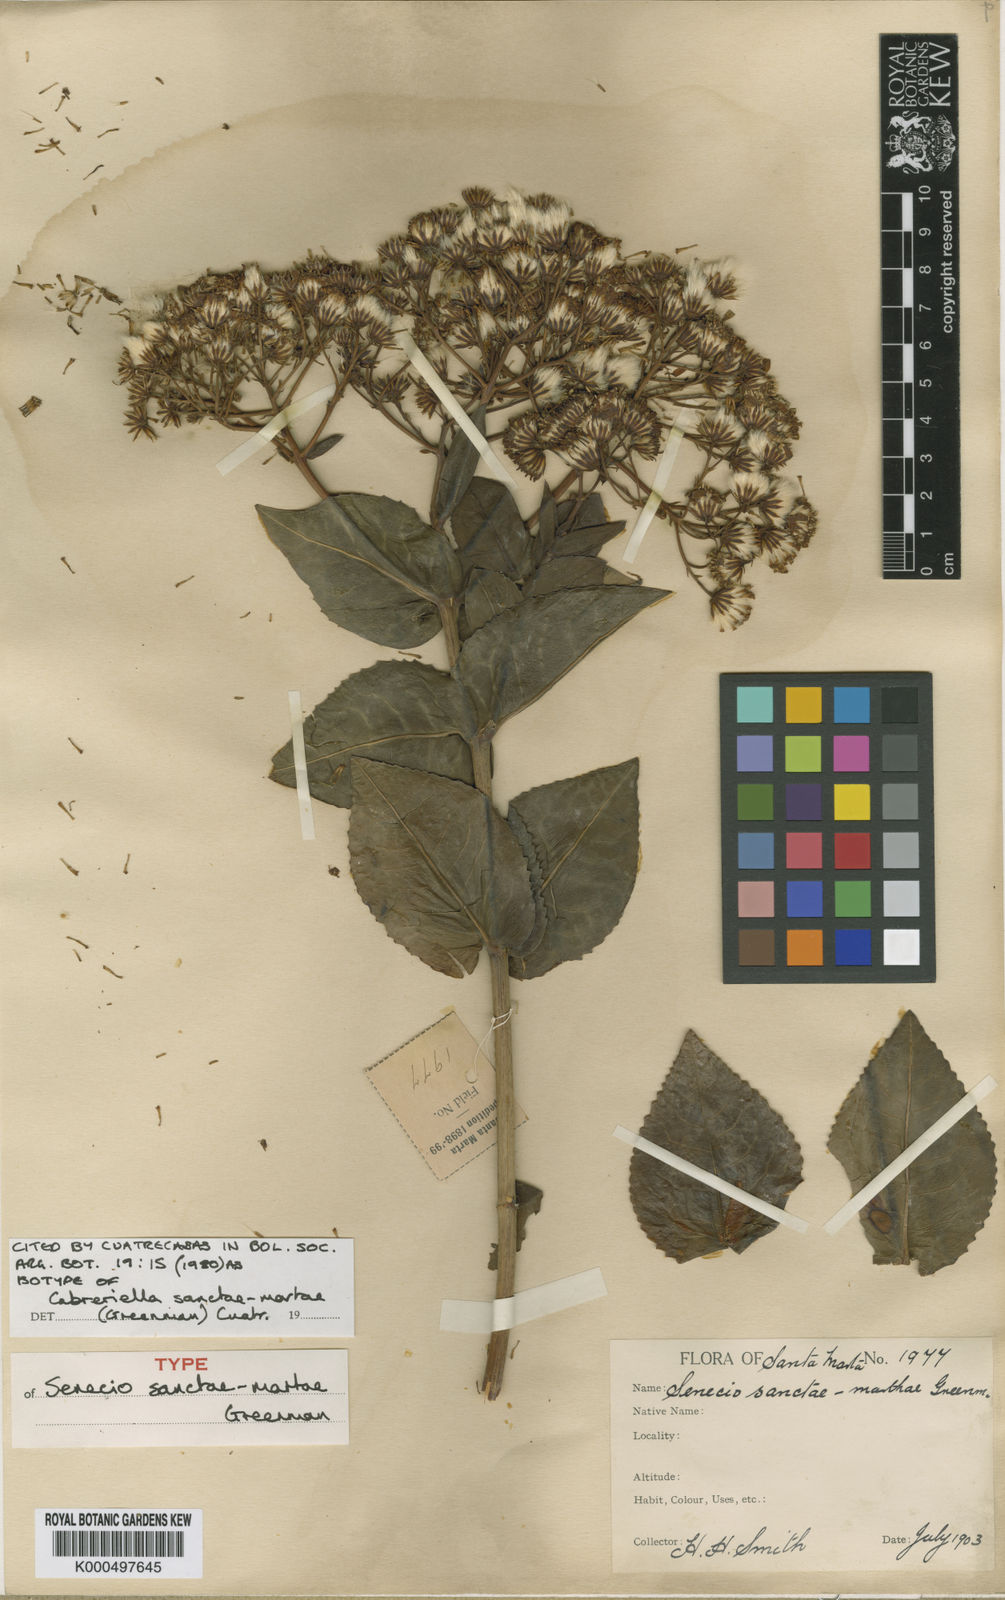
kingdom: Plantae
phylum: Tracheophyta
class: Magnoliopsida
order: Asterales
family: Asteraceae
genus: Cabreriella
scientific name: Cabreriella sanctae-martae
